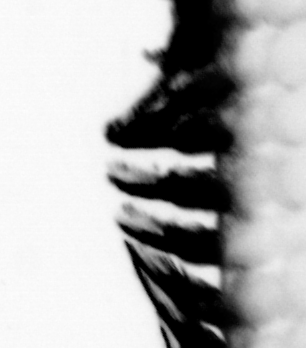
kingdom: Animalia
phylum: Annelida
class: Polychaeta
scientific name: Polychaeta
